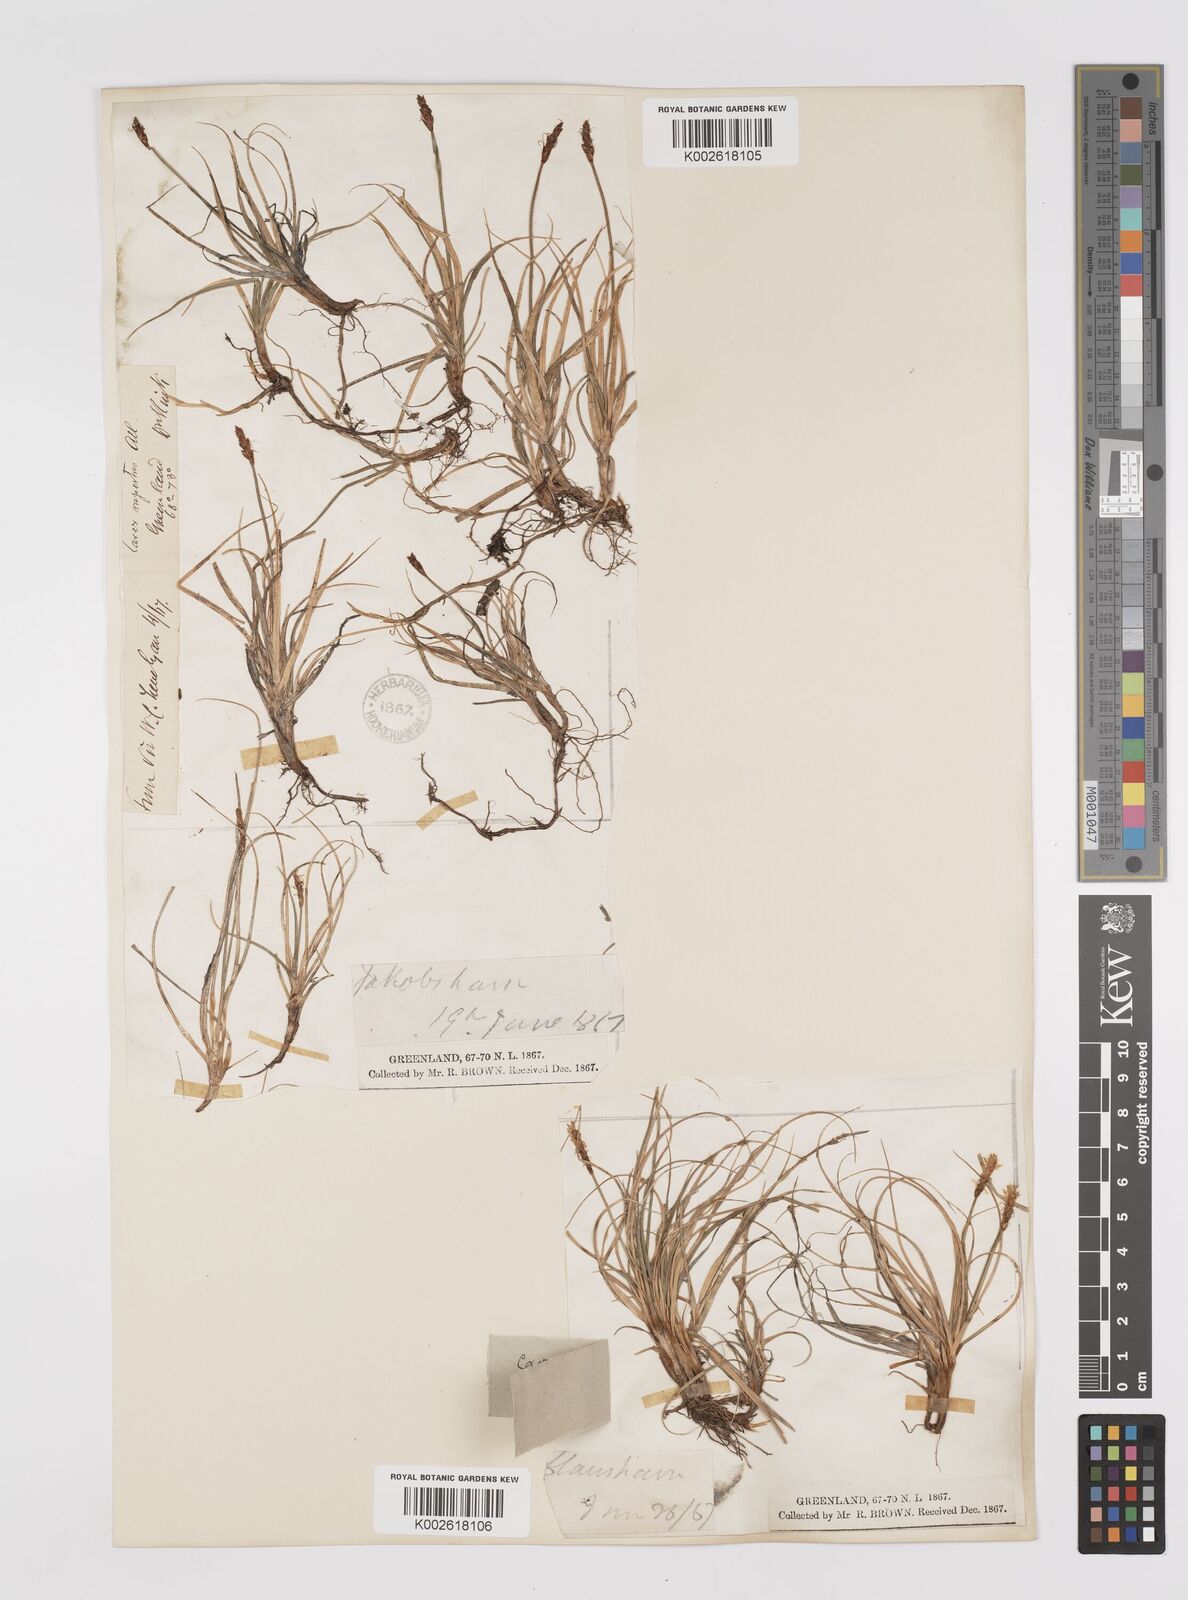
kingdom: Plantae
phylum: Tracheophyta
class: Liliopsida
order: Poales
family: Cyperaceae
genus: Carex
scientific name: Carex rupestris
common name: Rock sedge
